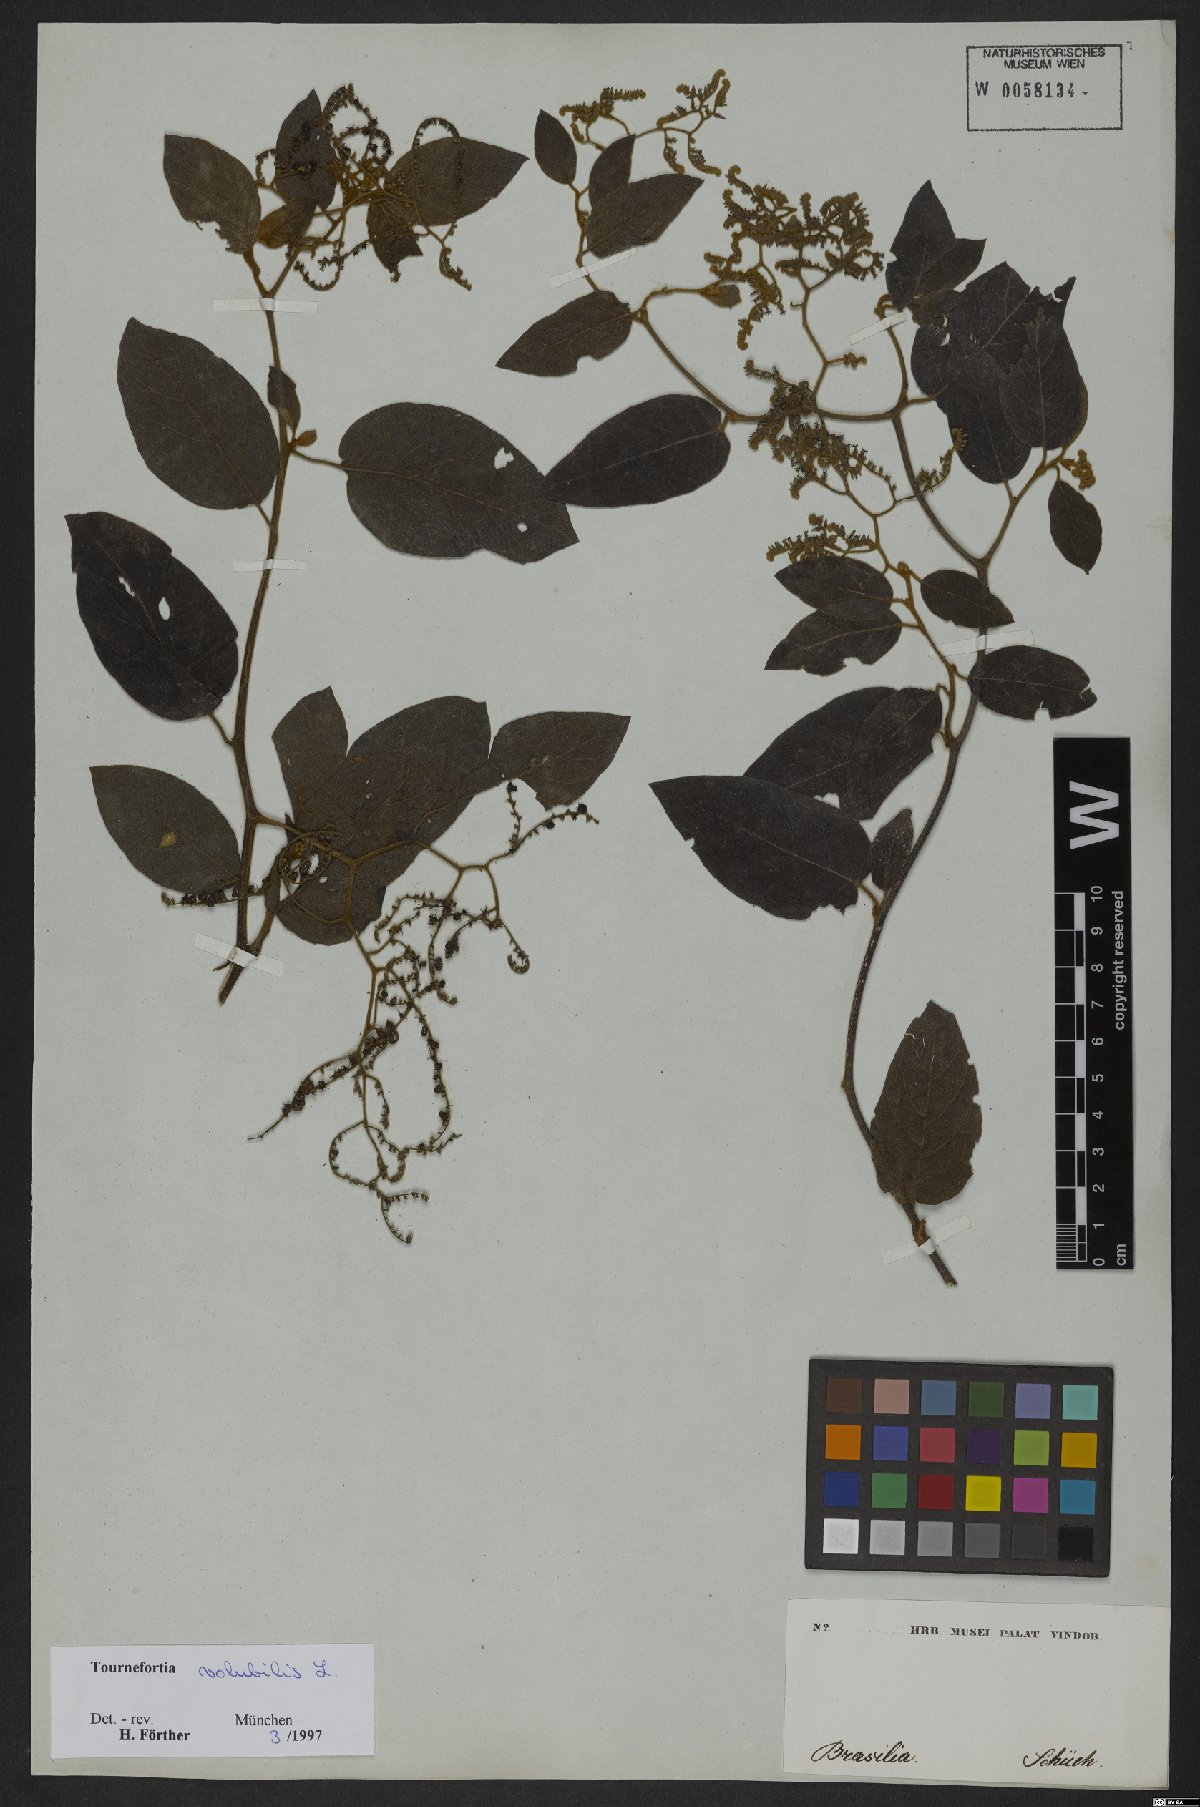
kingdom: Plantae
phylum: Tracheophyta
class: Magnoliopsida
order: Boraginales
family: Heliotropiaceae
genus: Myriopus
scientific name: Myriopus volubilis
